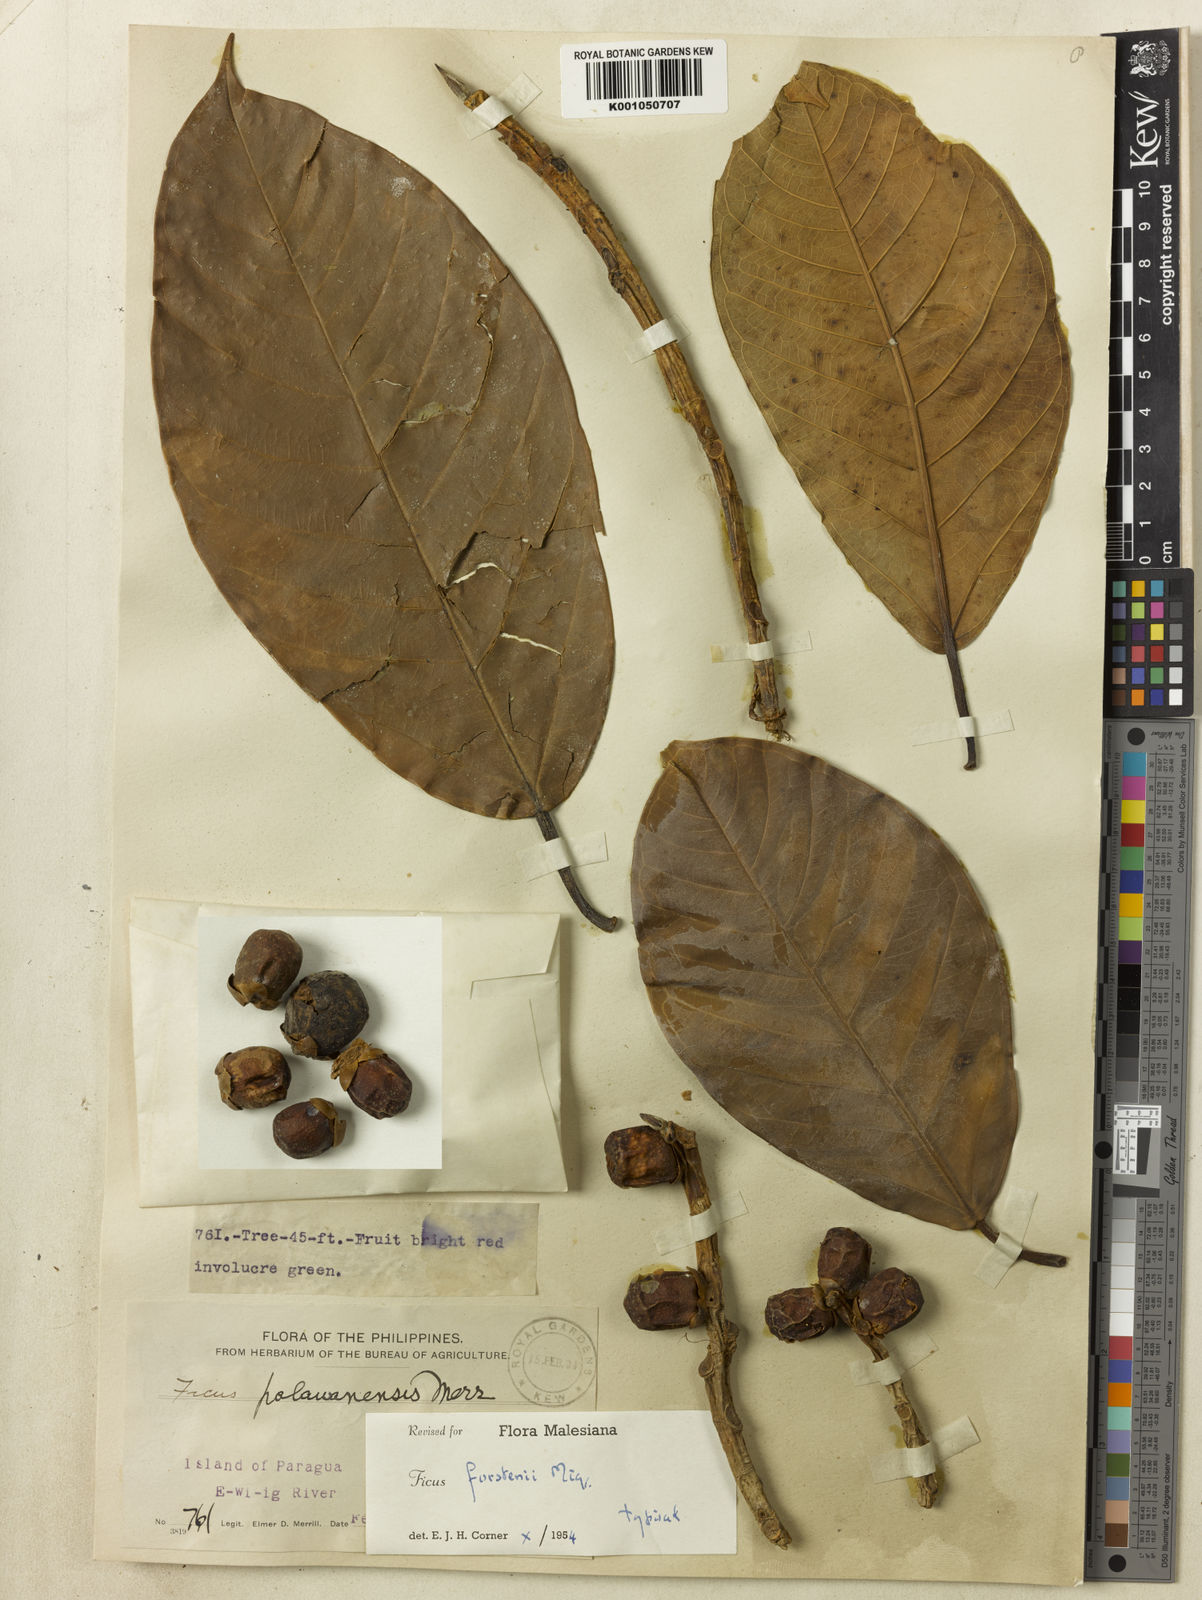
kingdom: Plantae
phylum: Tracheophyta
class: Magnoliopsida
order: Rosales
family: Moraceae
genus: Ficus
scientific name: Ficus forstenii
